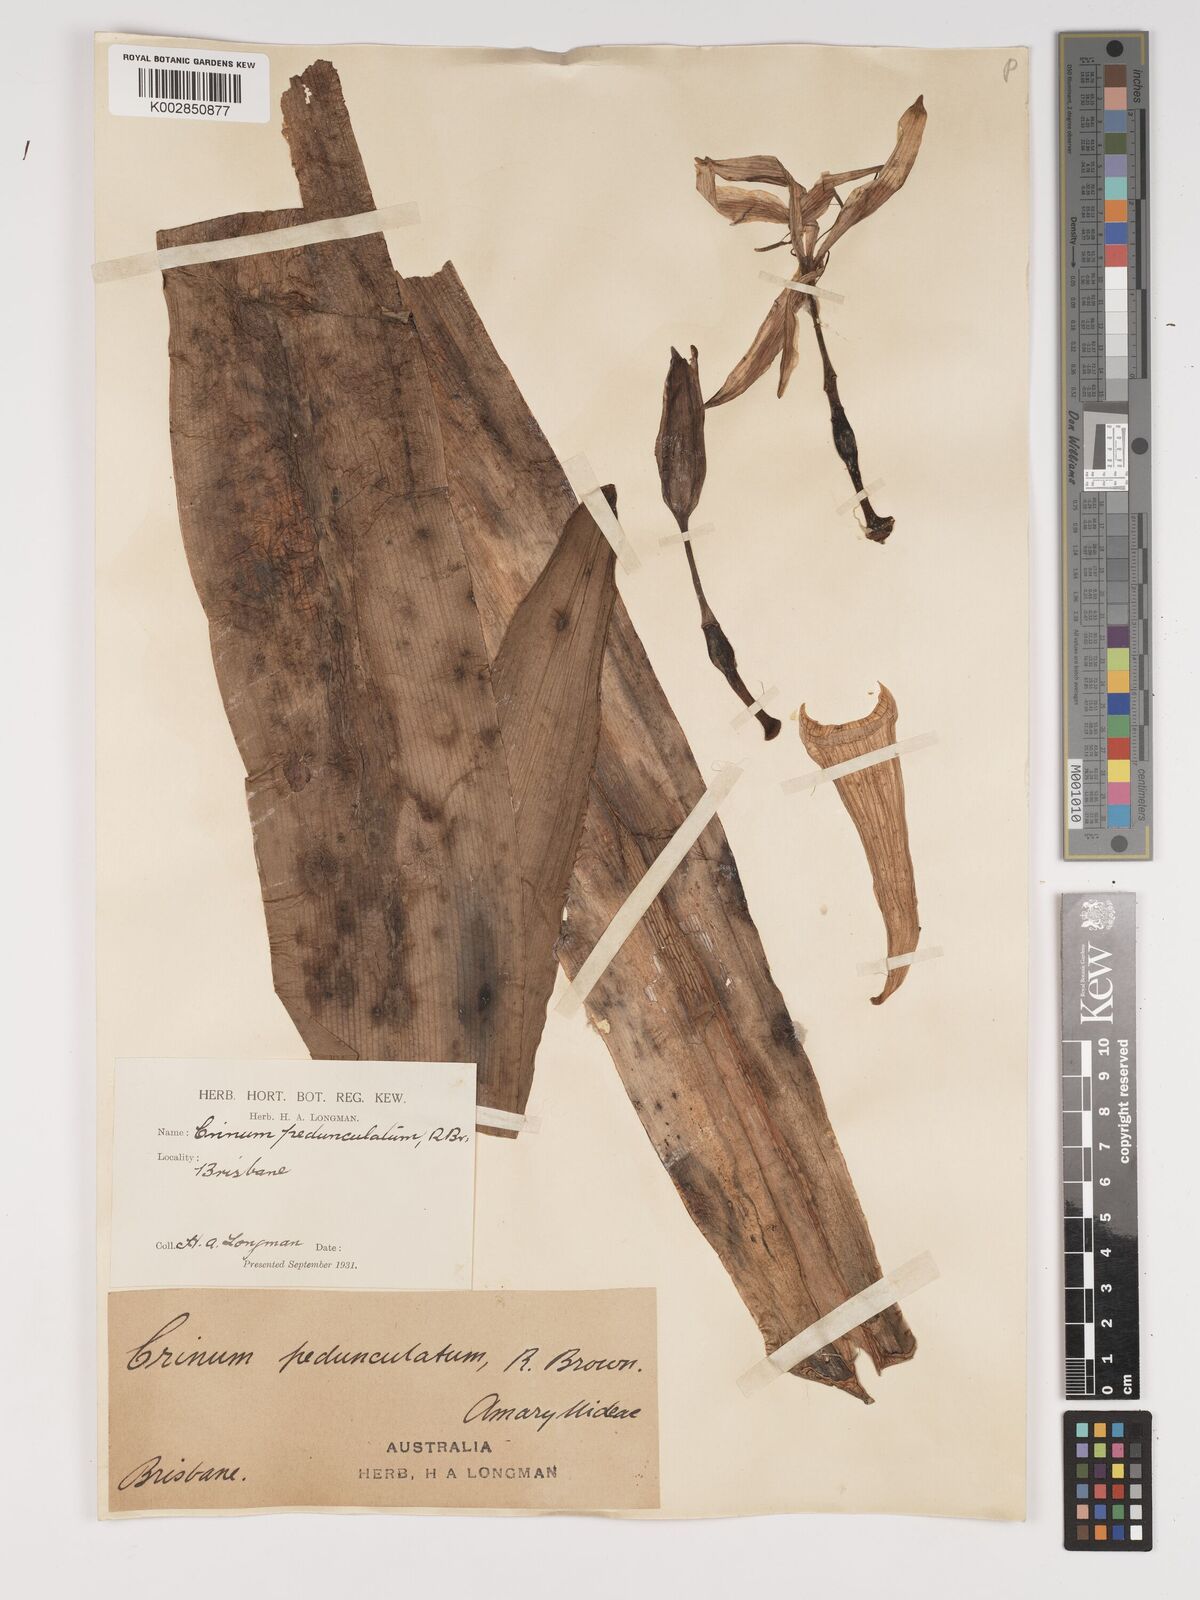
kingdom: Plantae
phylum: Tracheophyta
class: Liliopsida
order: Asparagales
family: Amaryllidaceae
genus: Crinum
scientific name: Crinum asiaticum
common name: Poisonbulb
